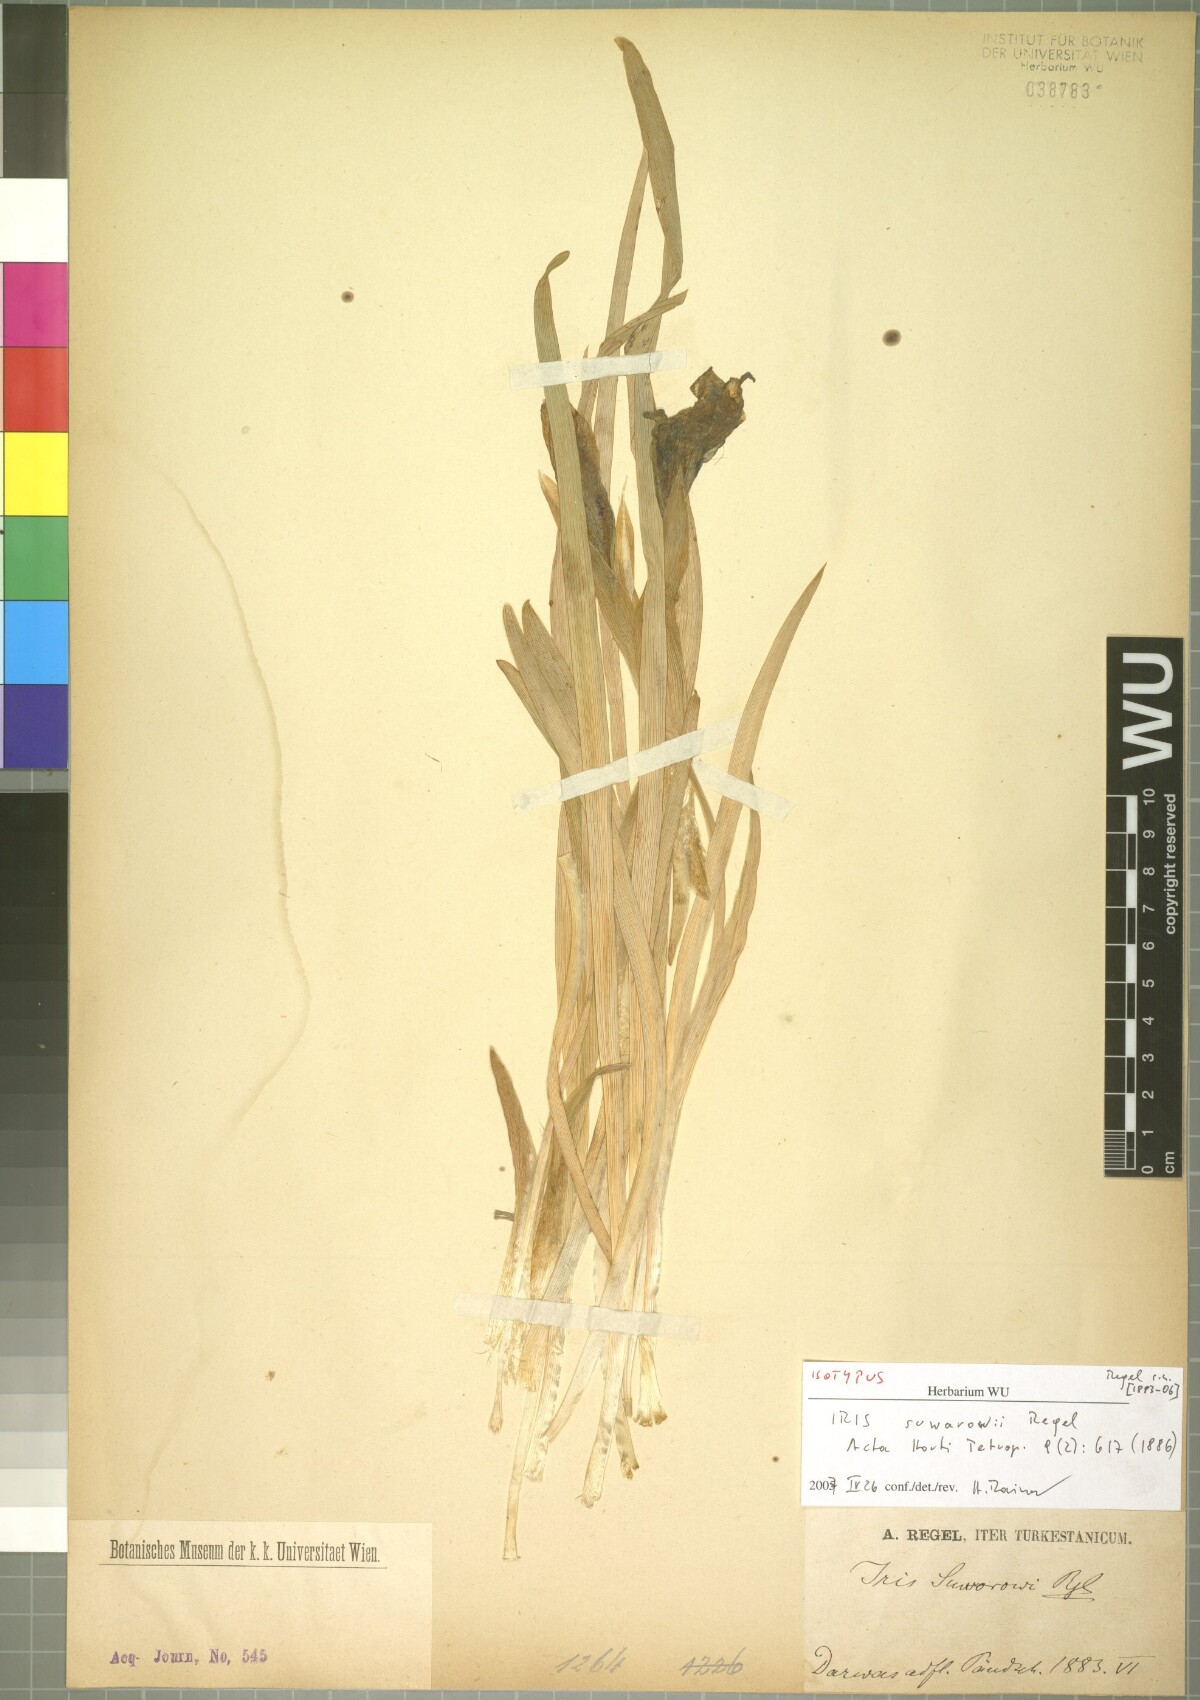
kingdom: Plantae
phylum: Tracheophyta
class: Liliopsida
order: Asparagales
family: Iridaceae
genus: Iris
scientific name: Iris suwarowi
